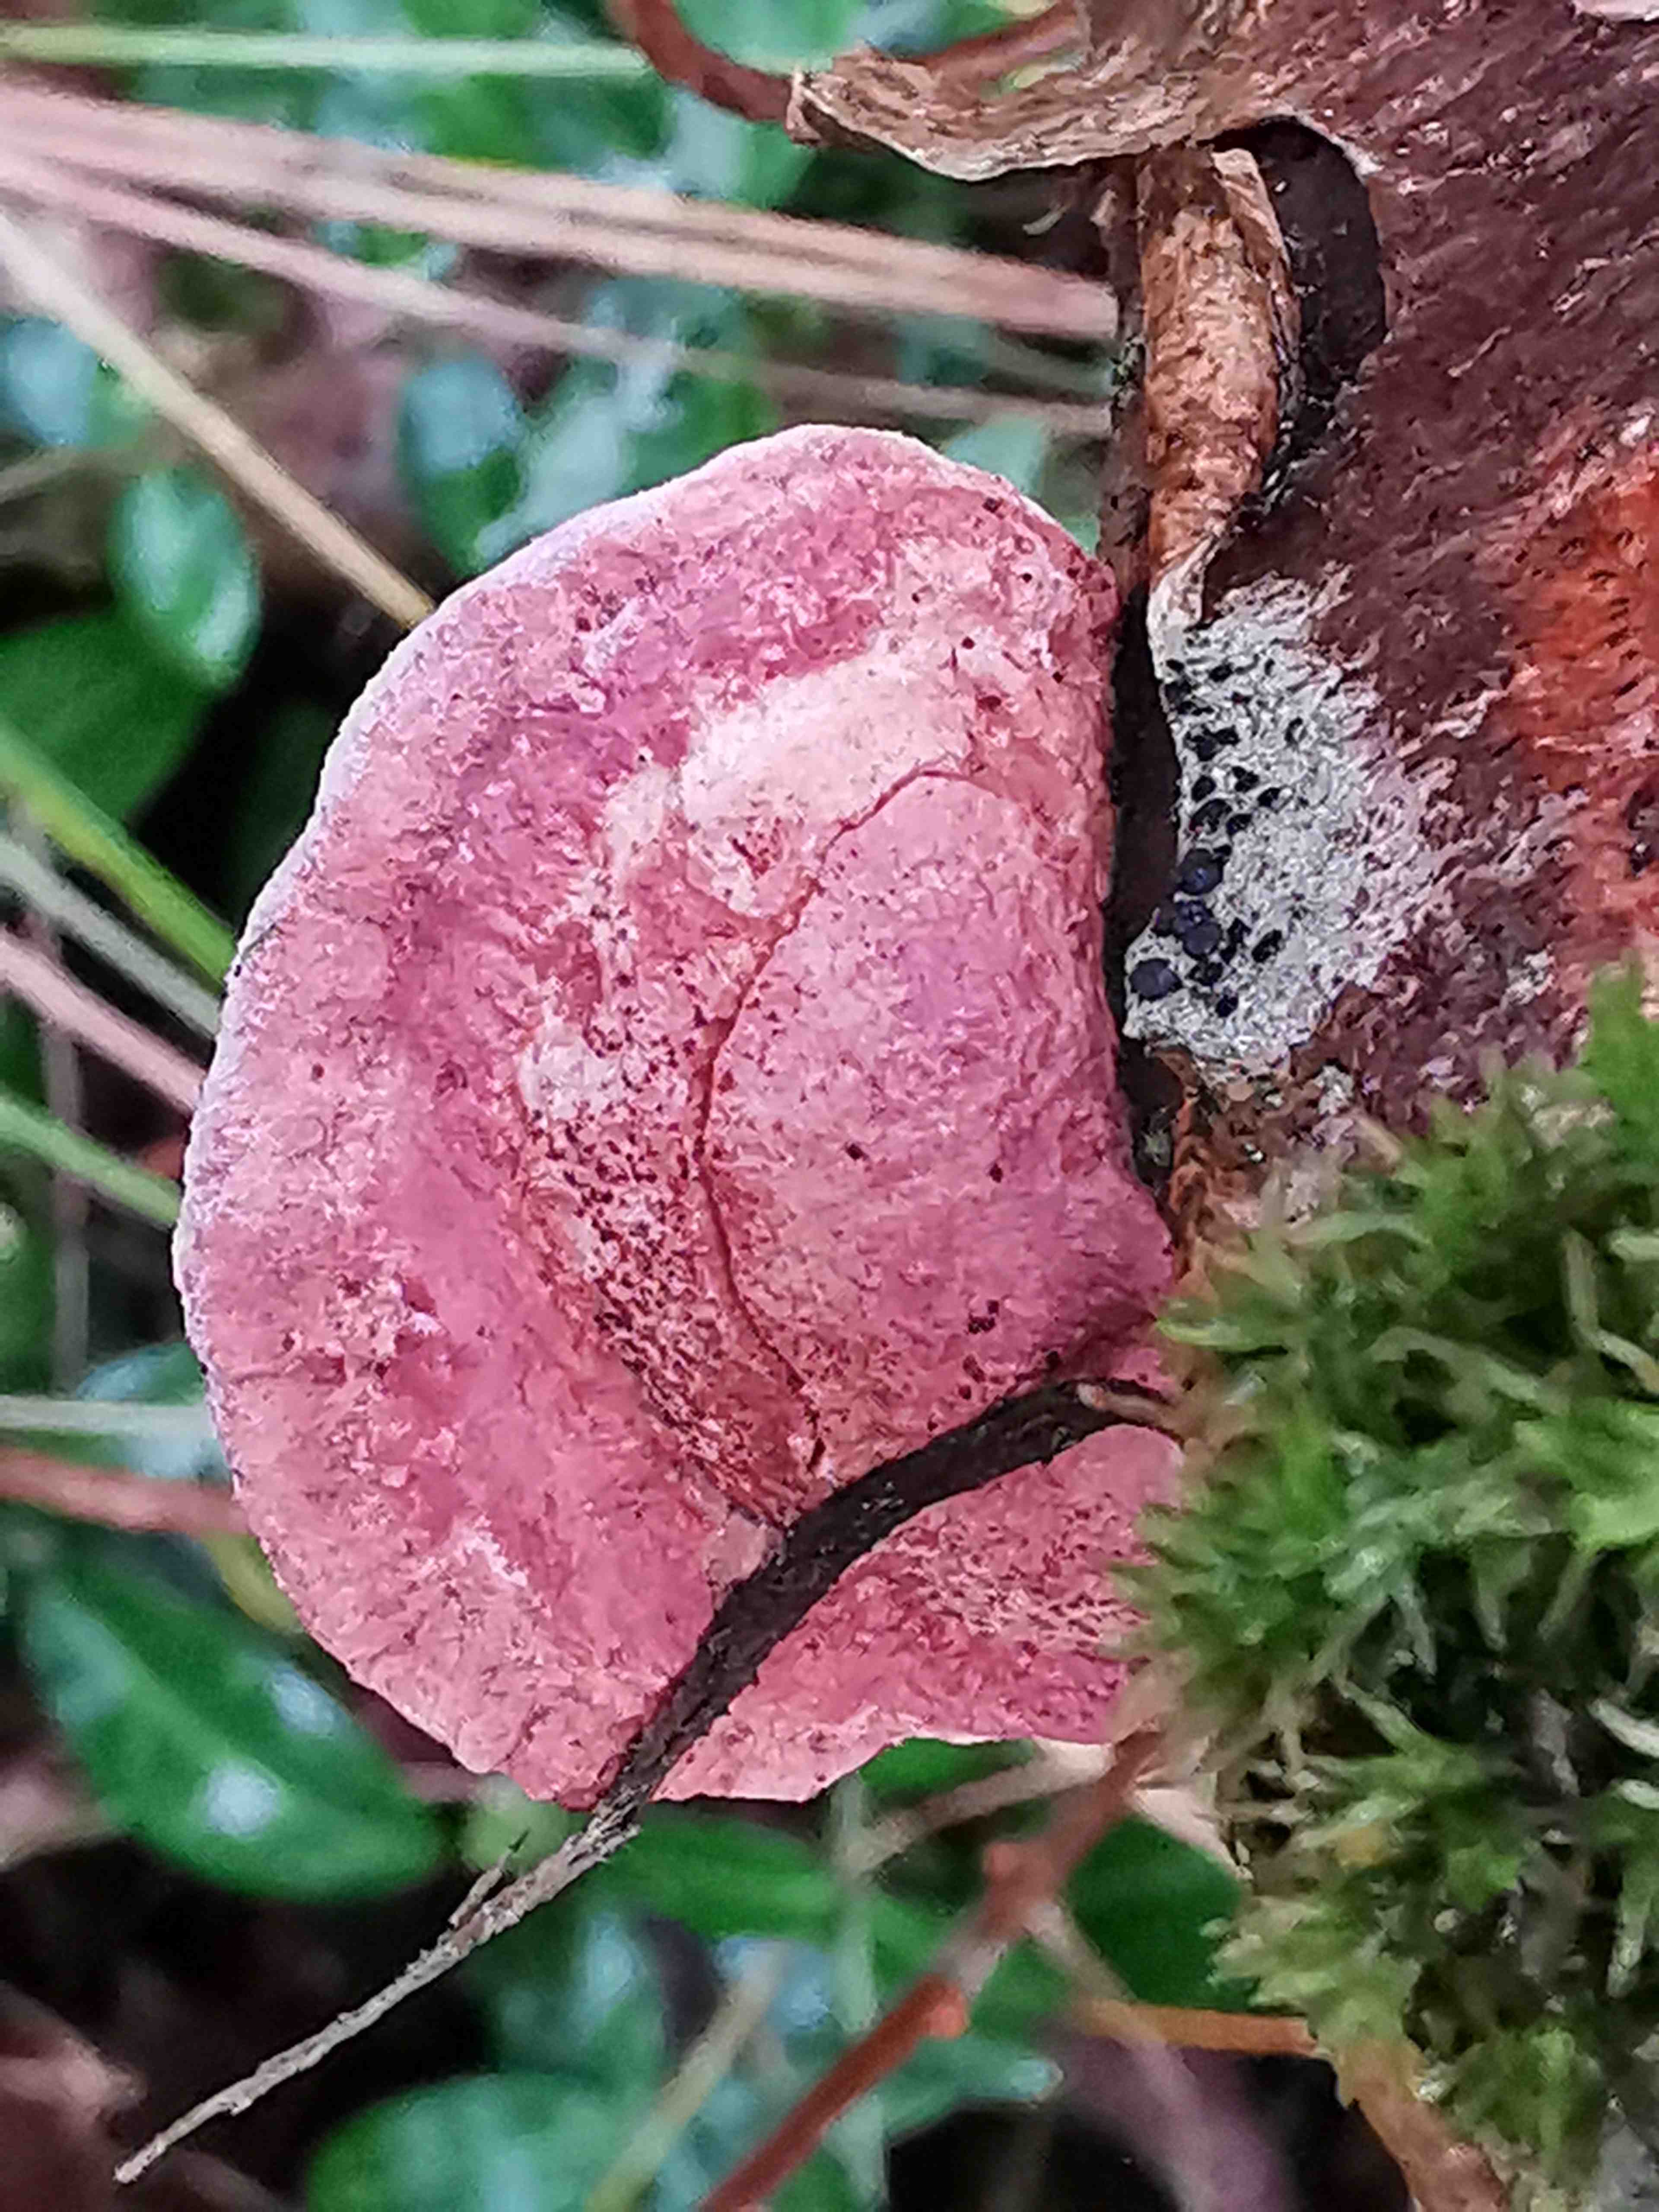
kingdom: Fungi
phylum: Basidiomycota
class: Agaricomycetes
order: Polyporales
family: Phanerochaetaceae
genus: Hapalopilus
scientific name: Hapalopilus rutilans
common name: rødlig okkerporesvamp
